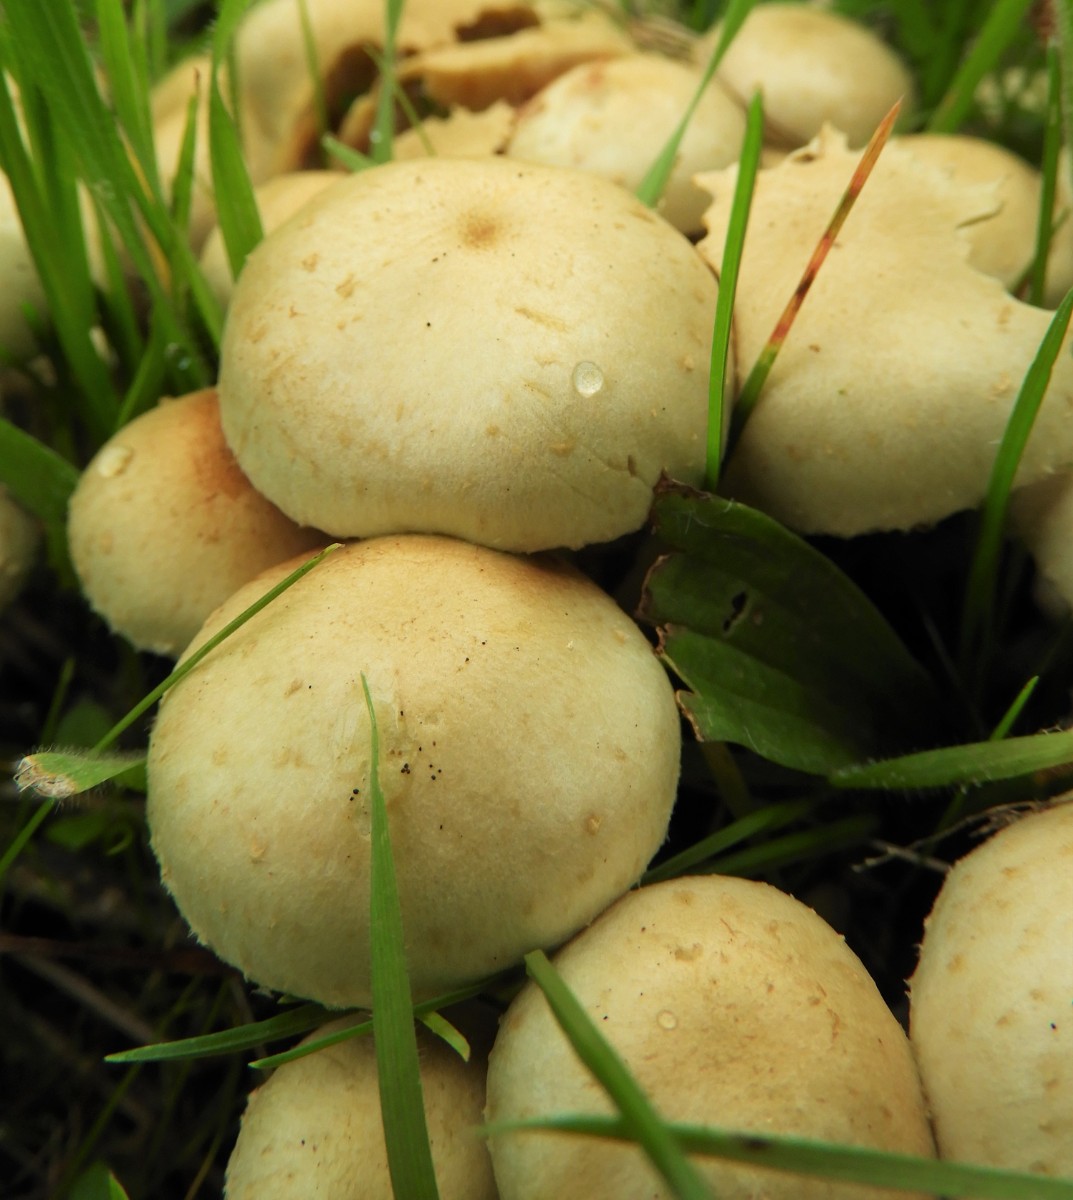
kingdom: Fungi
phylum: Basidiomycota
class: Agaricomycetes
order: Agaricales
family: Strophariaceae
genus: Pholiota
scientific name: Pholiota gummosa
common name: grøngul skælhat
